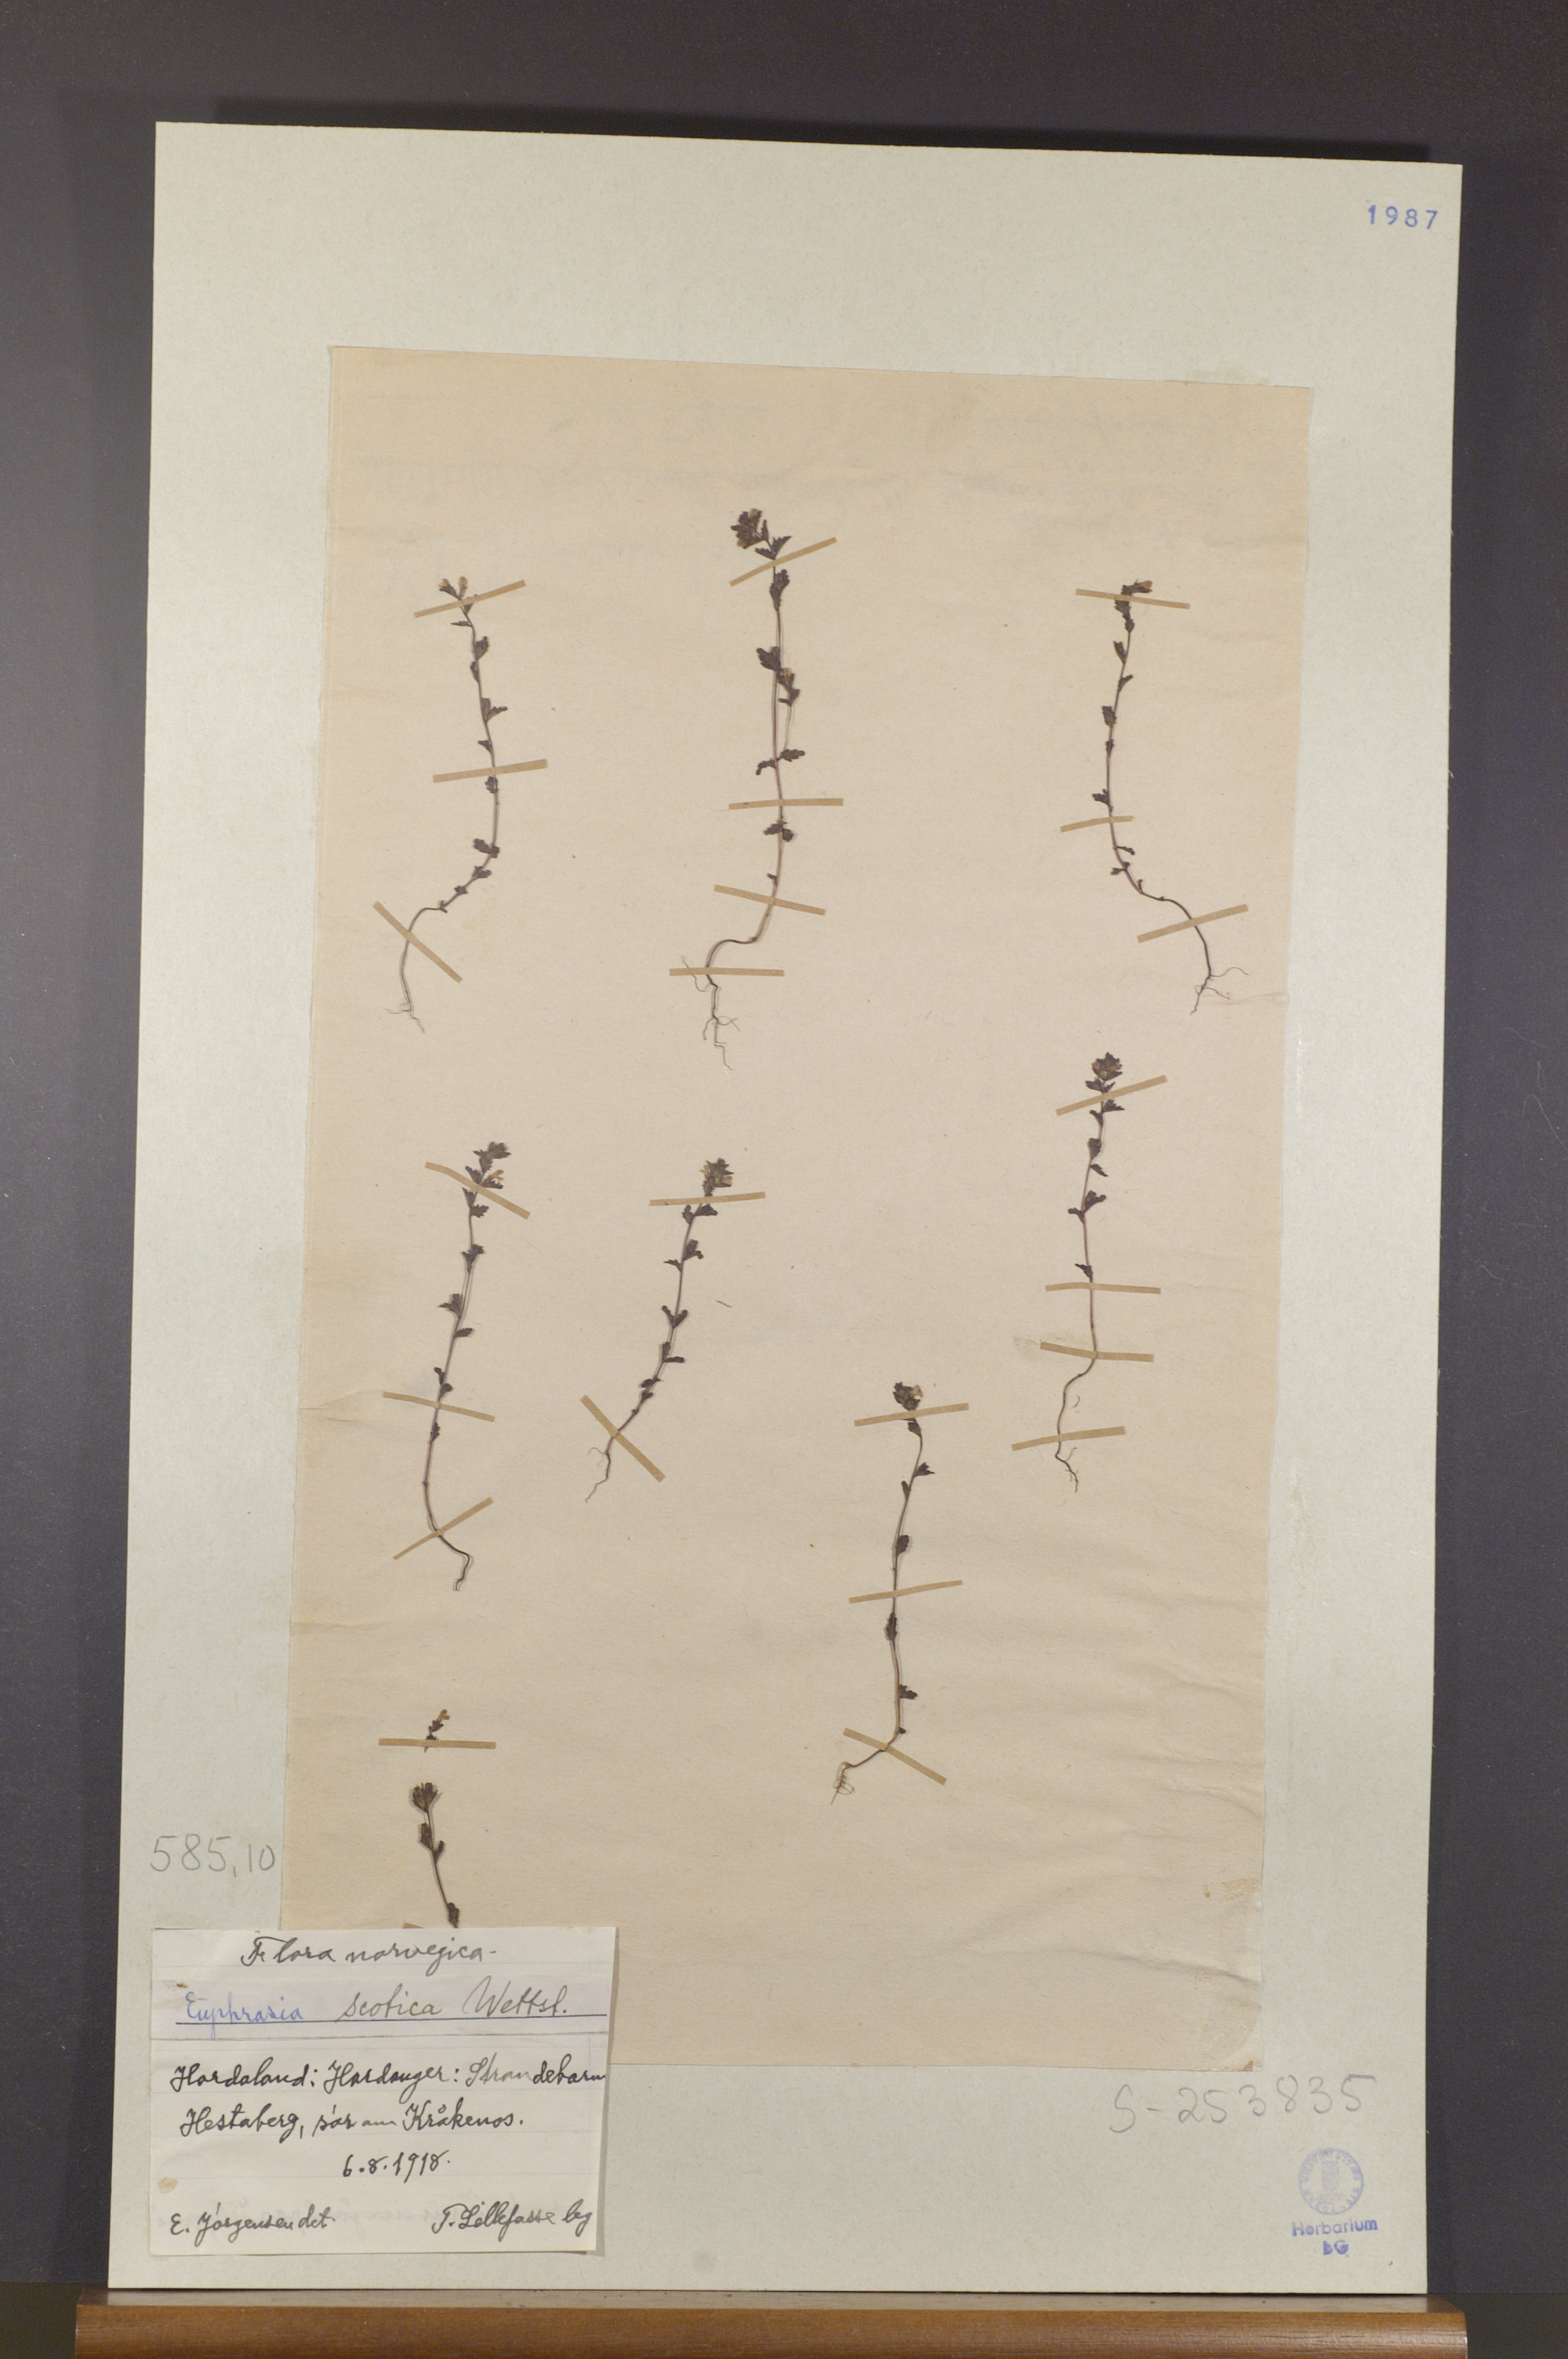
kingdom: Plantae
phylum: Tracheophyta
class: Magnoliopsida
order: Lamiales
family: Orobanchaceae
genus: Euphrasia
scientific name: Euphrasia scottica
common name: Slender scottish eyebright
